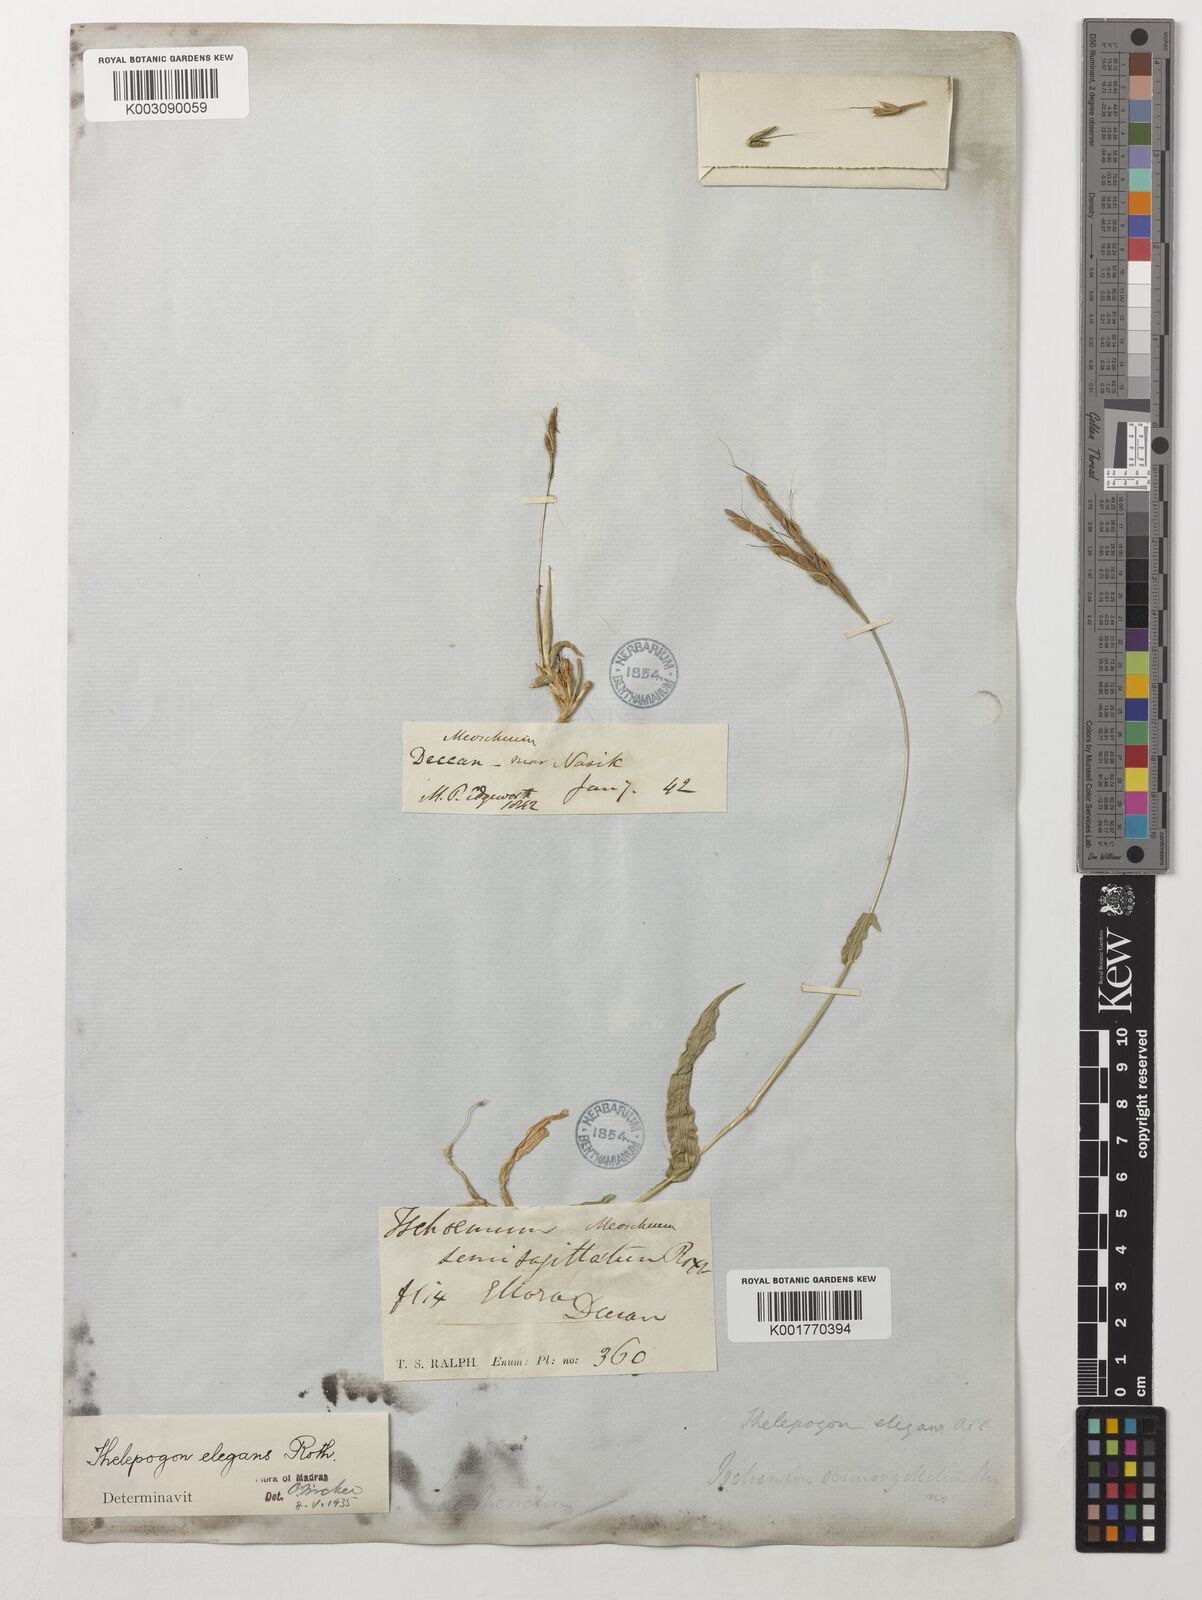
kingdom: Plantae
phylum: Tracheophyta
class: Liliopsida
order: Poales
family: Poaceae
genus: Thelepogon
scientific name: Thelepogon elegans
